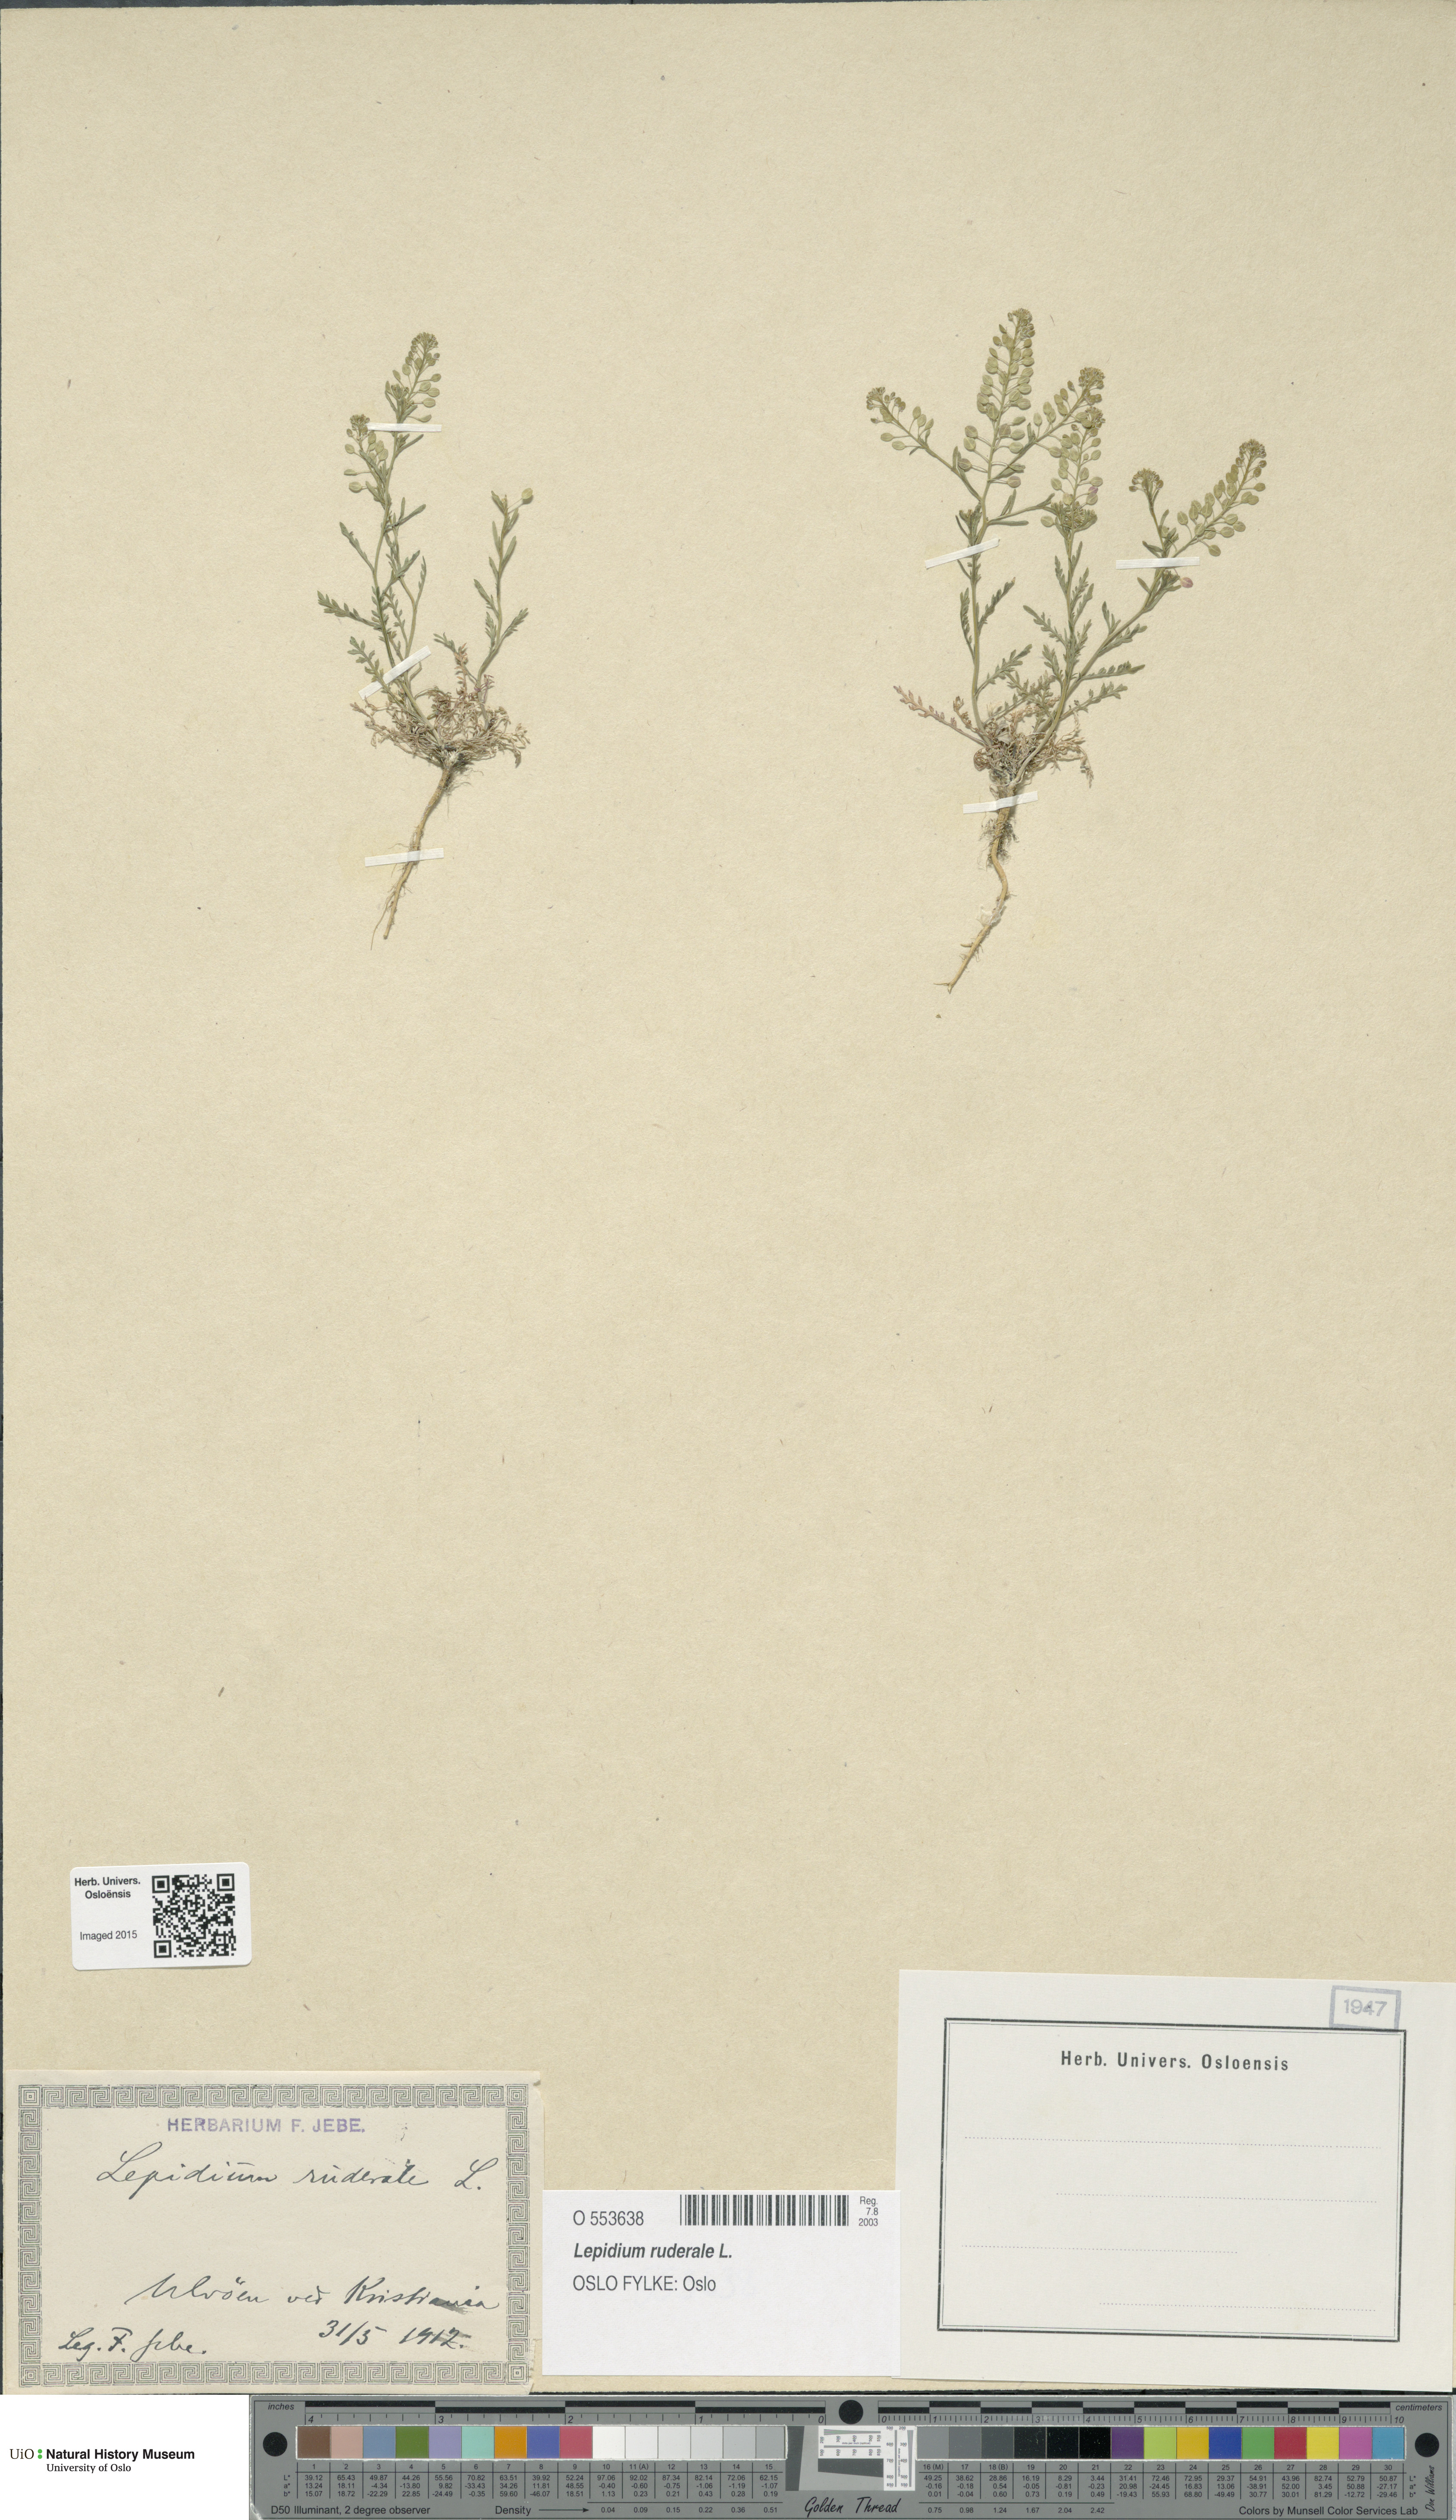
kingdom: Plantae
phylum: Tracheophyta
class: Magnoliopsida
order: Brassicales
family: Brassicaceae
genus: Lepidium
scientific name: Lepidium ruderale
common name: Narrow-leaved pepperwort
